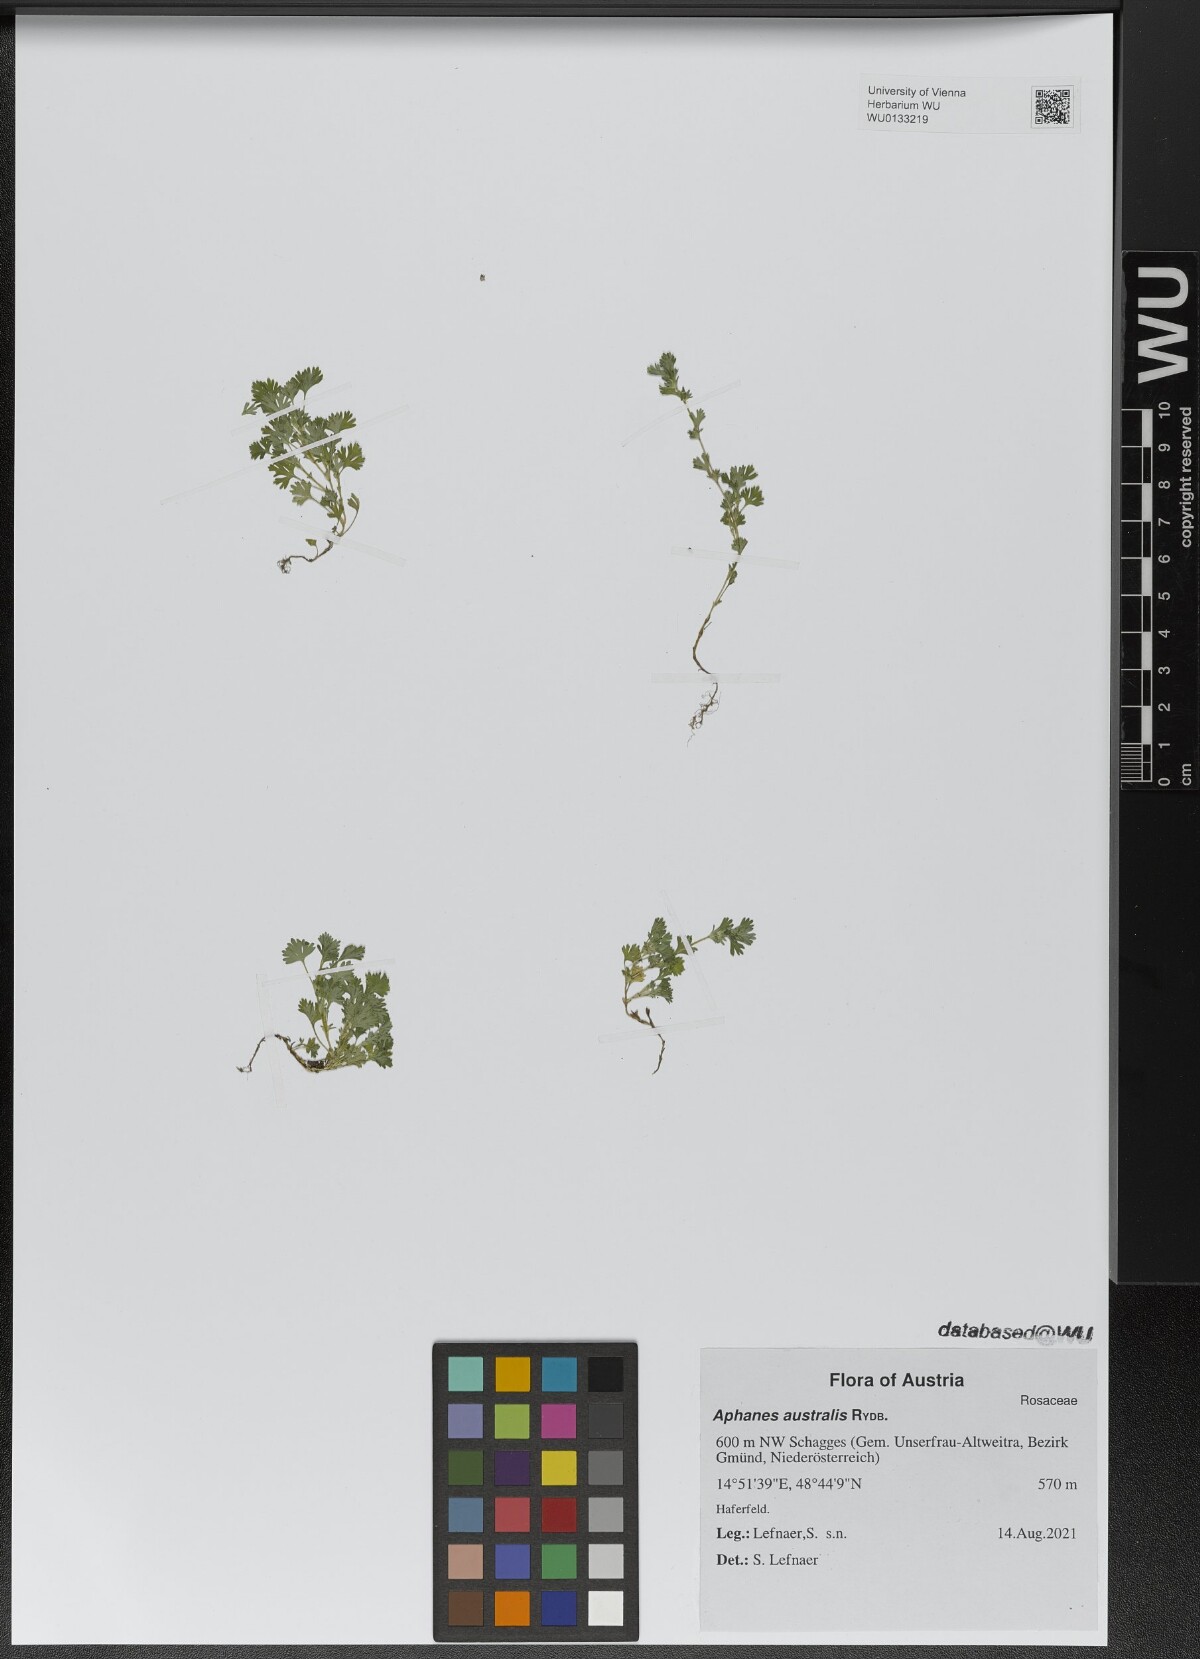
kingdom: Plantae
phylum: Tracheophyta
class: Magnoliopsida
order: Rosales
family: Rosaceae
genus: Aphanes
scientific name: Aphanes australis
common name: Slender parsley-piert
